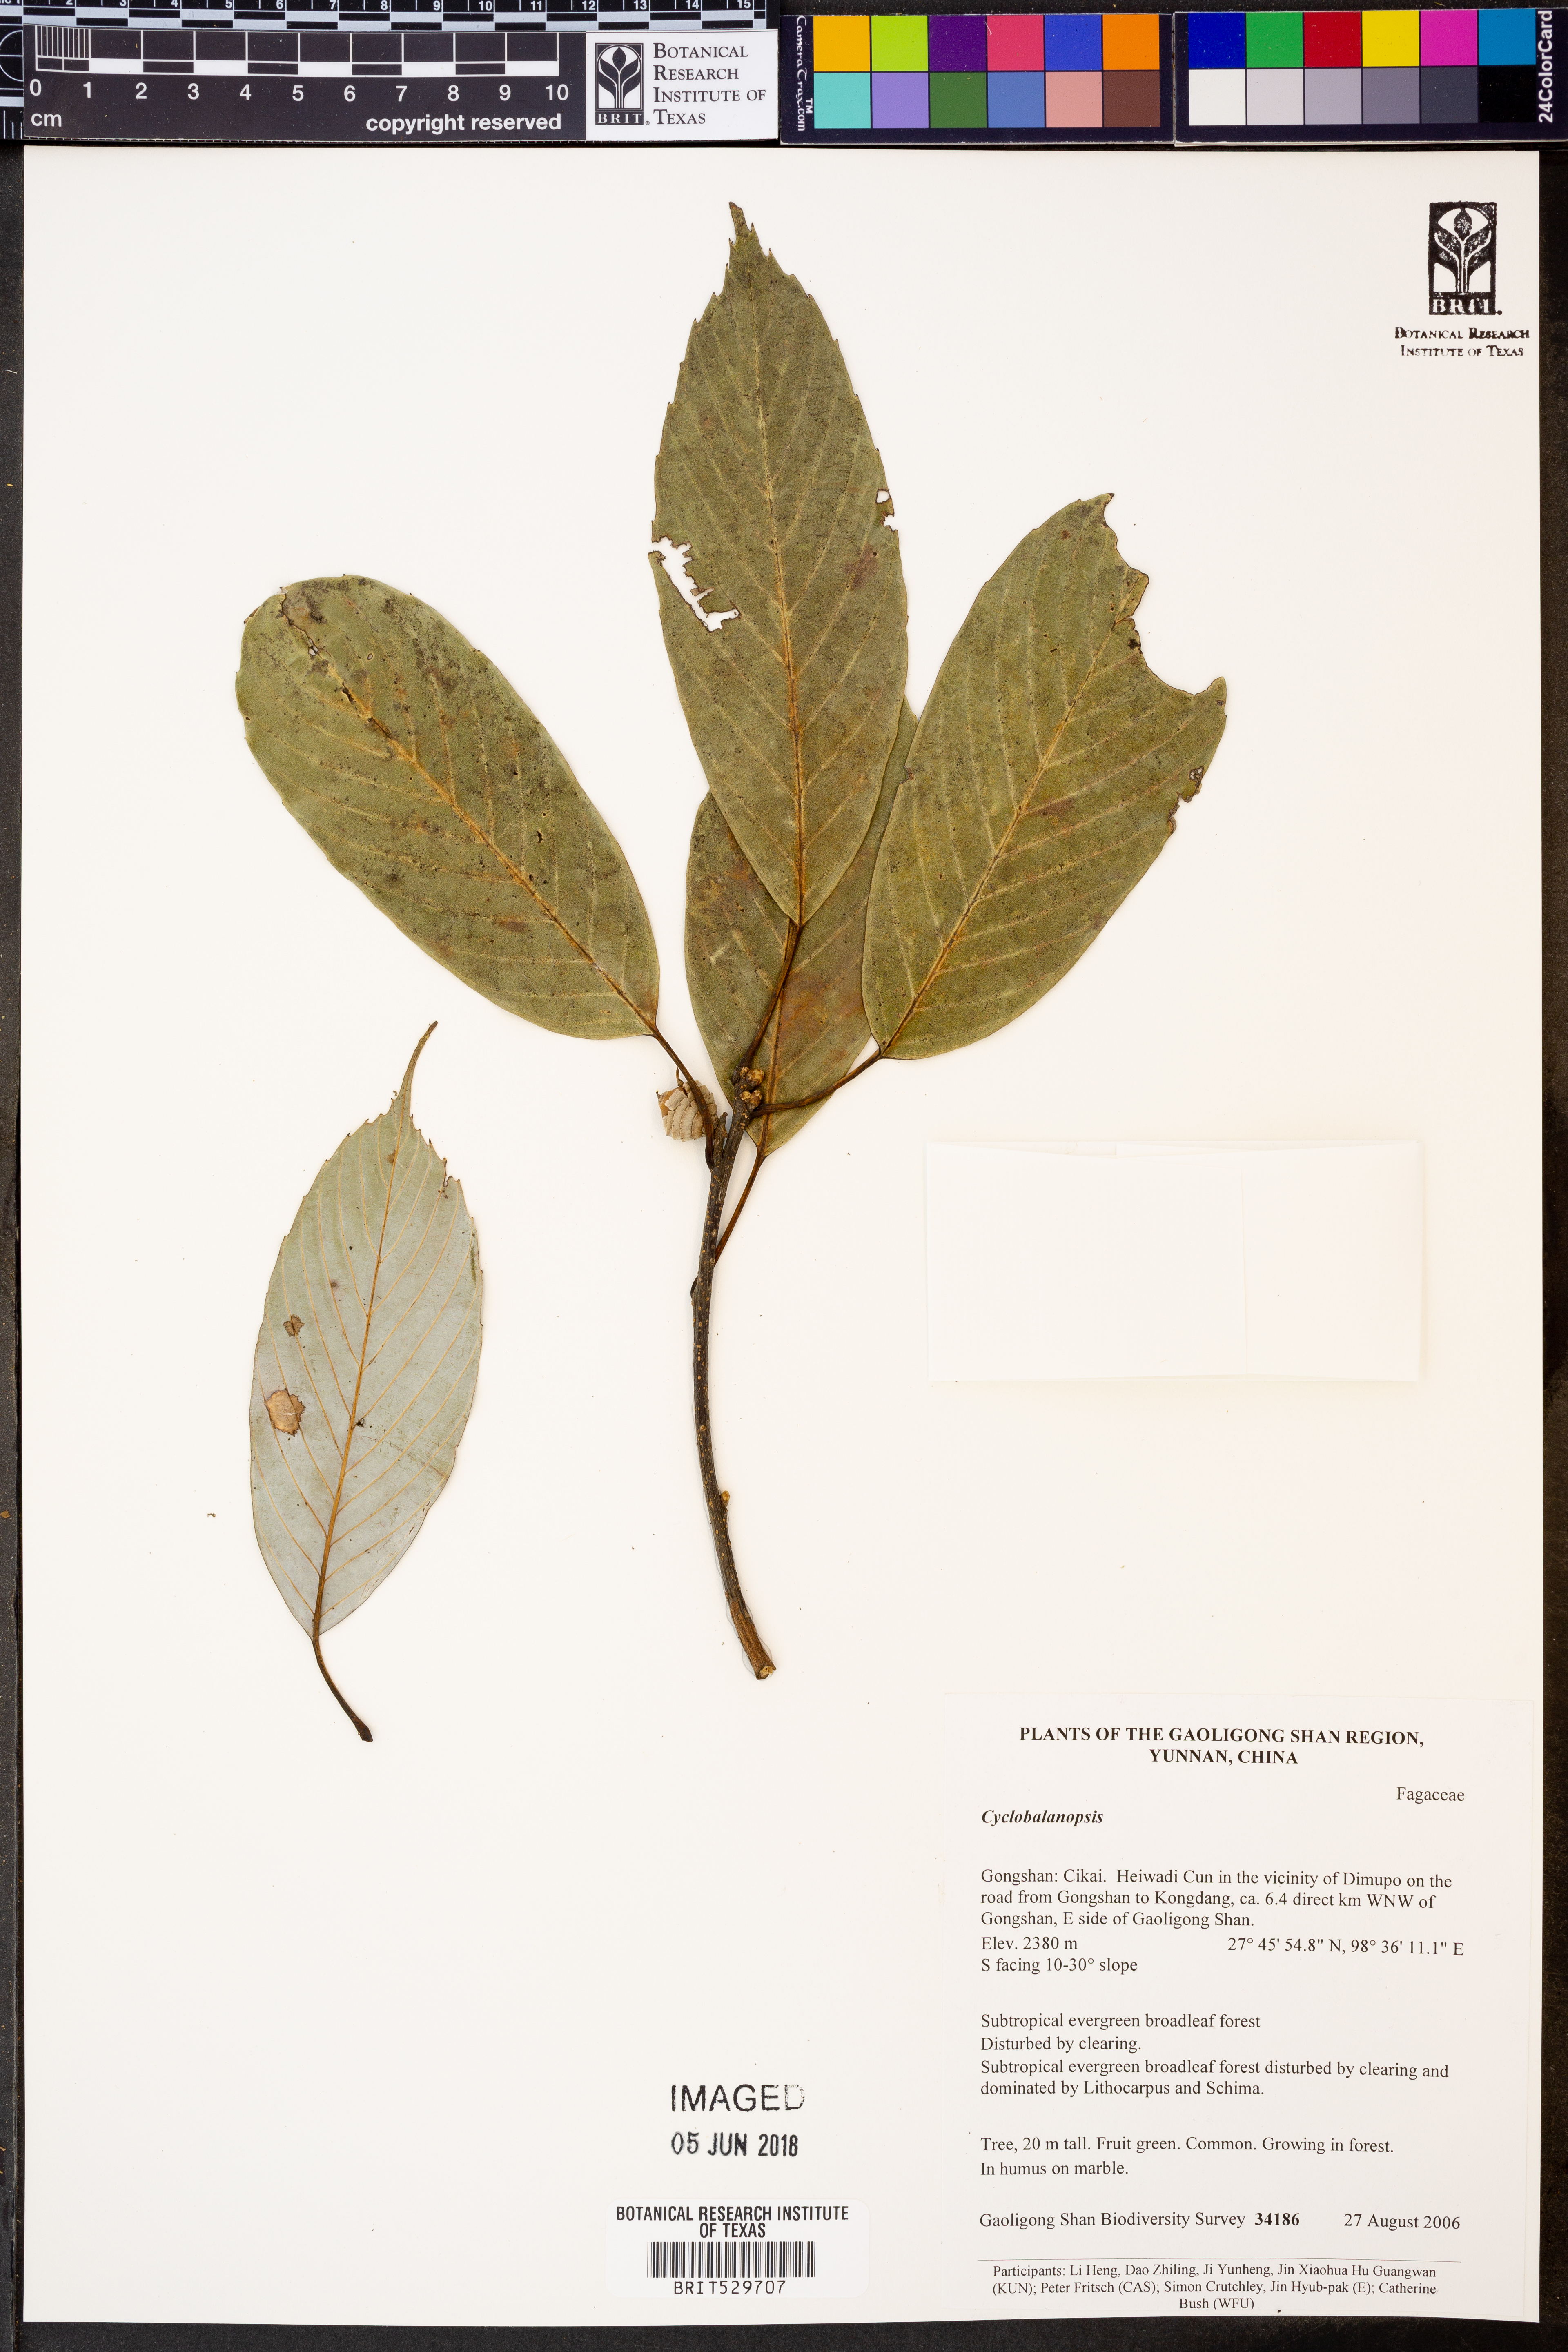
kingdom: Plantae
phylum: Tracheophyta
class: Magnoliopsida
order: Fagales
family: Fagaceae
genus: Quercus
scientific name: Quercus
